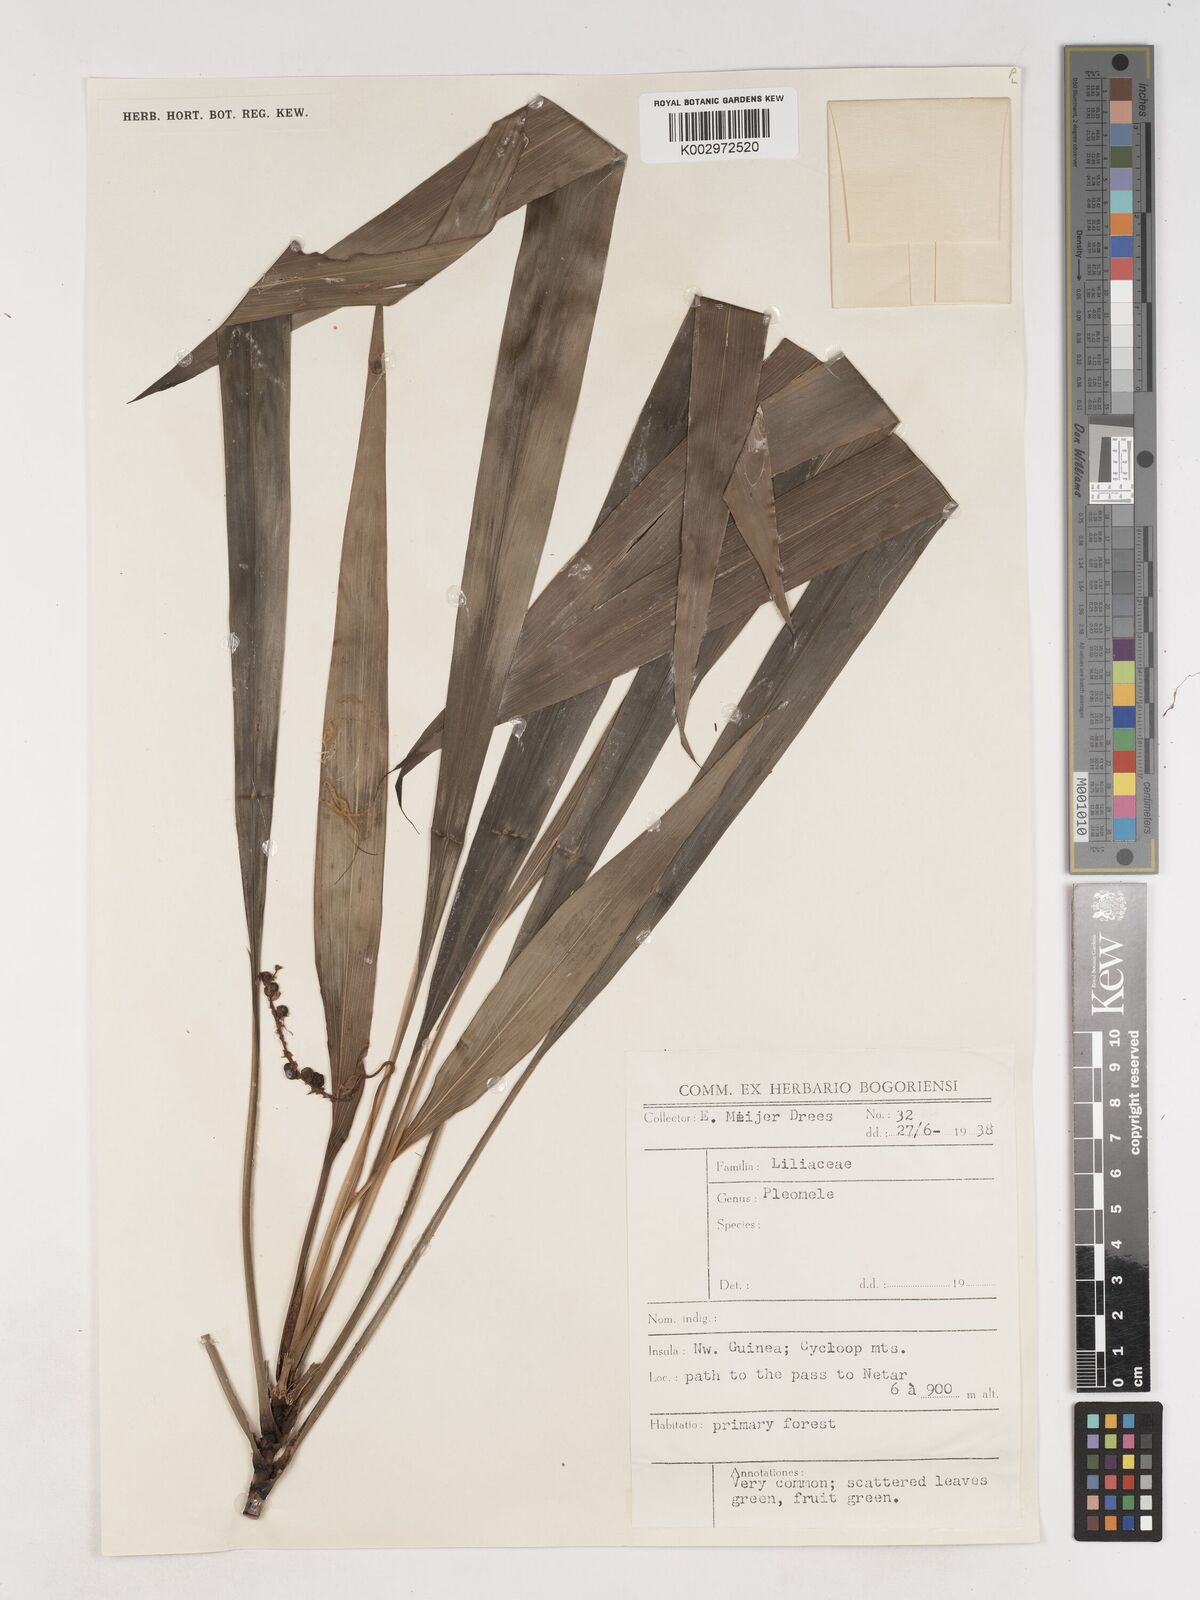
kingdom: Plantae
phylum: Tracheophyta
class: Liliopsida
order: Asparagales
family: Asparagaceae
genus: Cordyline
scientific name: Cordyline
